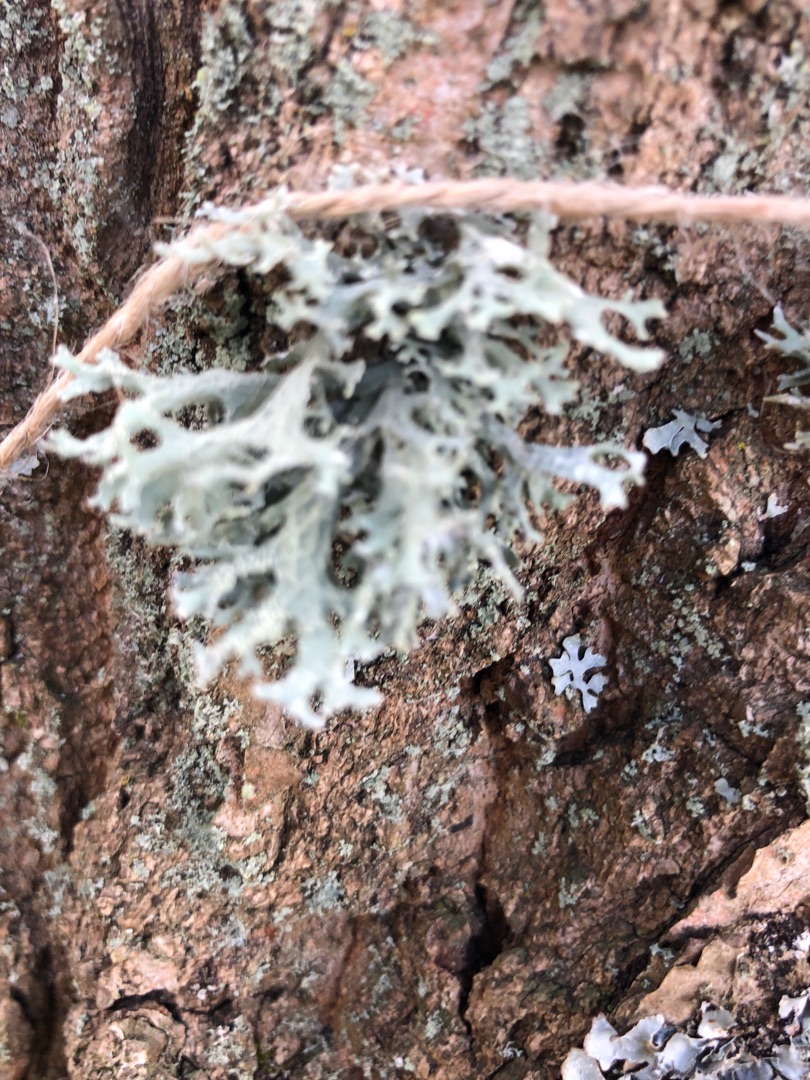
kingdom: Fungi
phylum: Ascomycota
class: Lecanoromycetes
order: Lecanorales
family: Parmeliaceae
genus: Evernia
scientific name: Evernia prunastri
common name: Almindelig slåenlav
